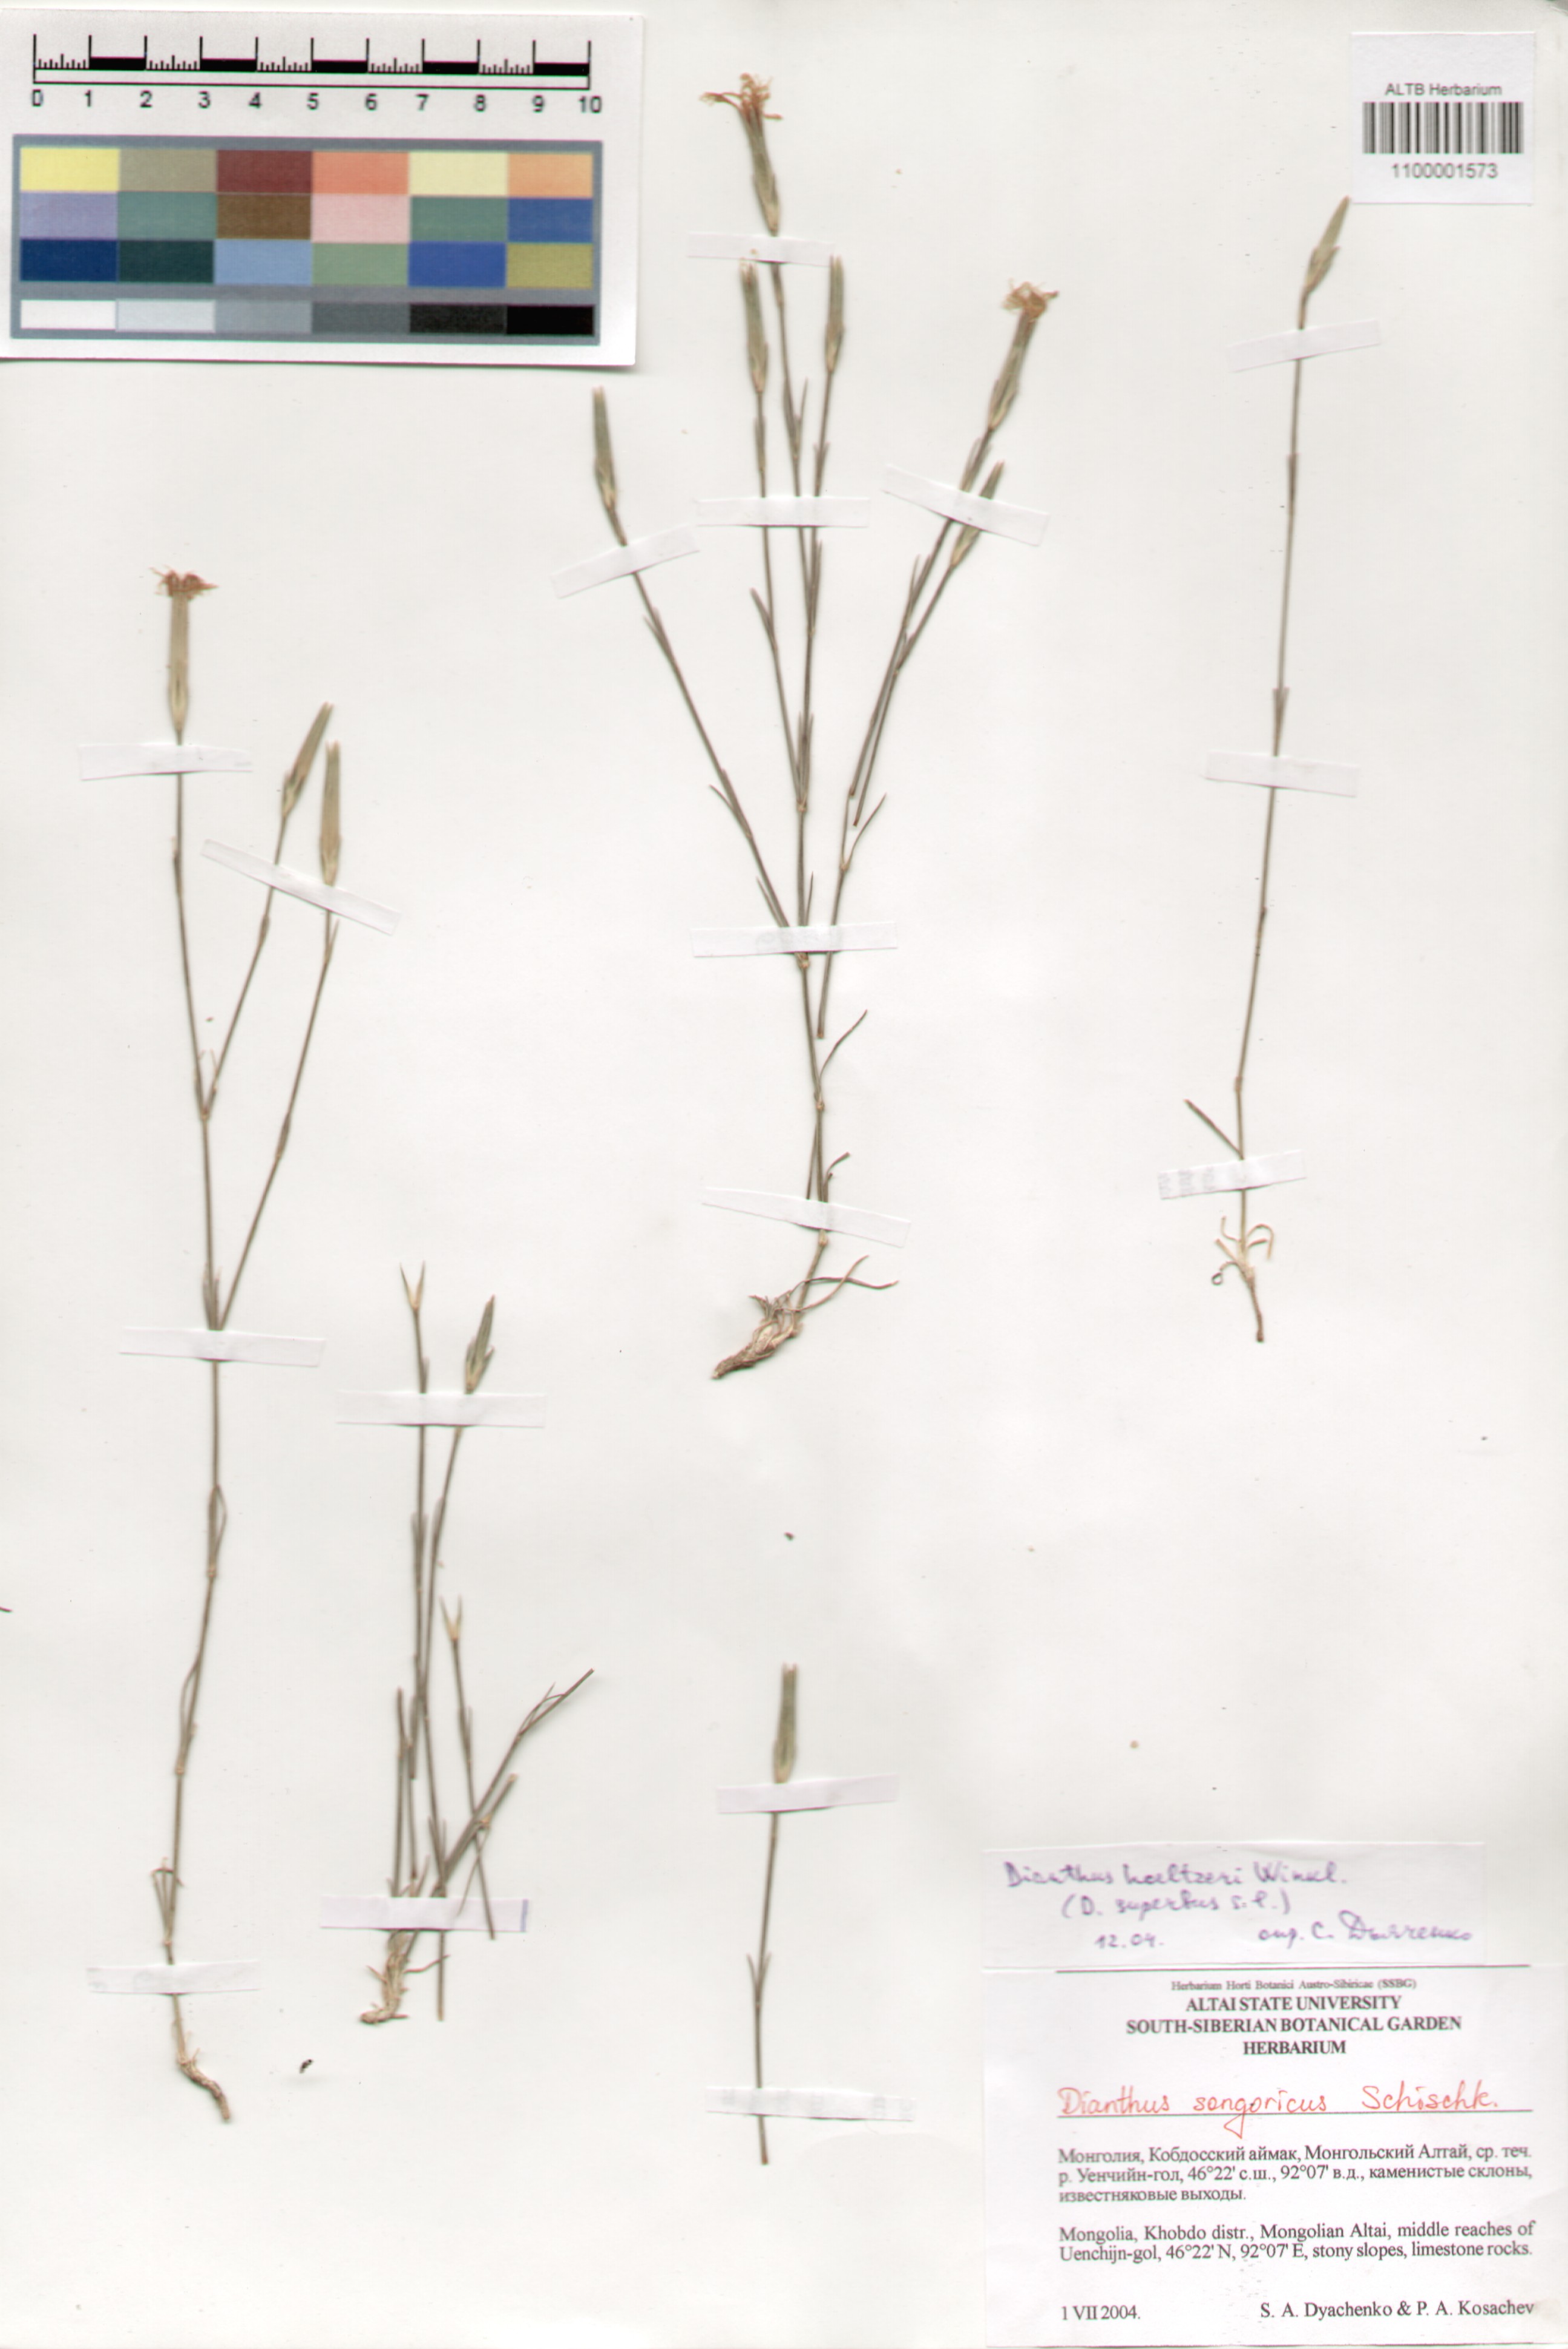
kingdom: Plantae
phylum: Tracheophyta
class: Magnoliopsida
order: Caryophyllales
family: Caryophyllaceae
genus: Dianthus
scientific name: Dianthus superbus
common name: Fringed pink
